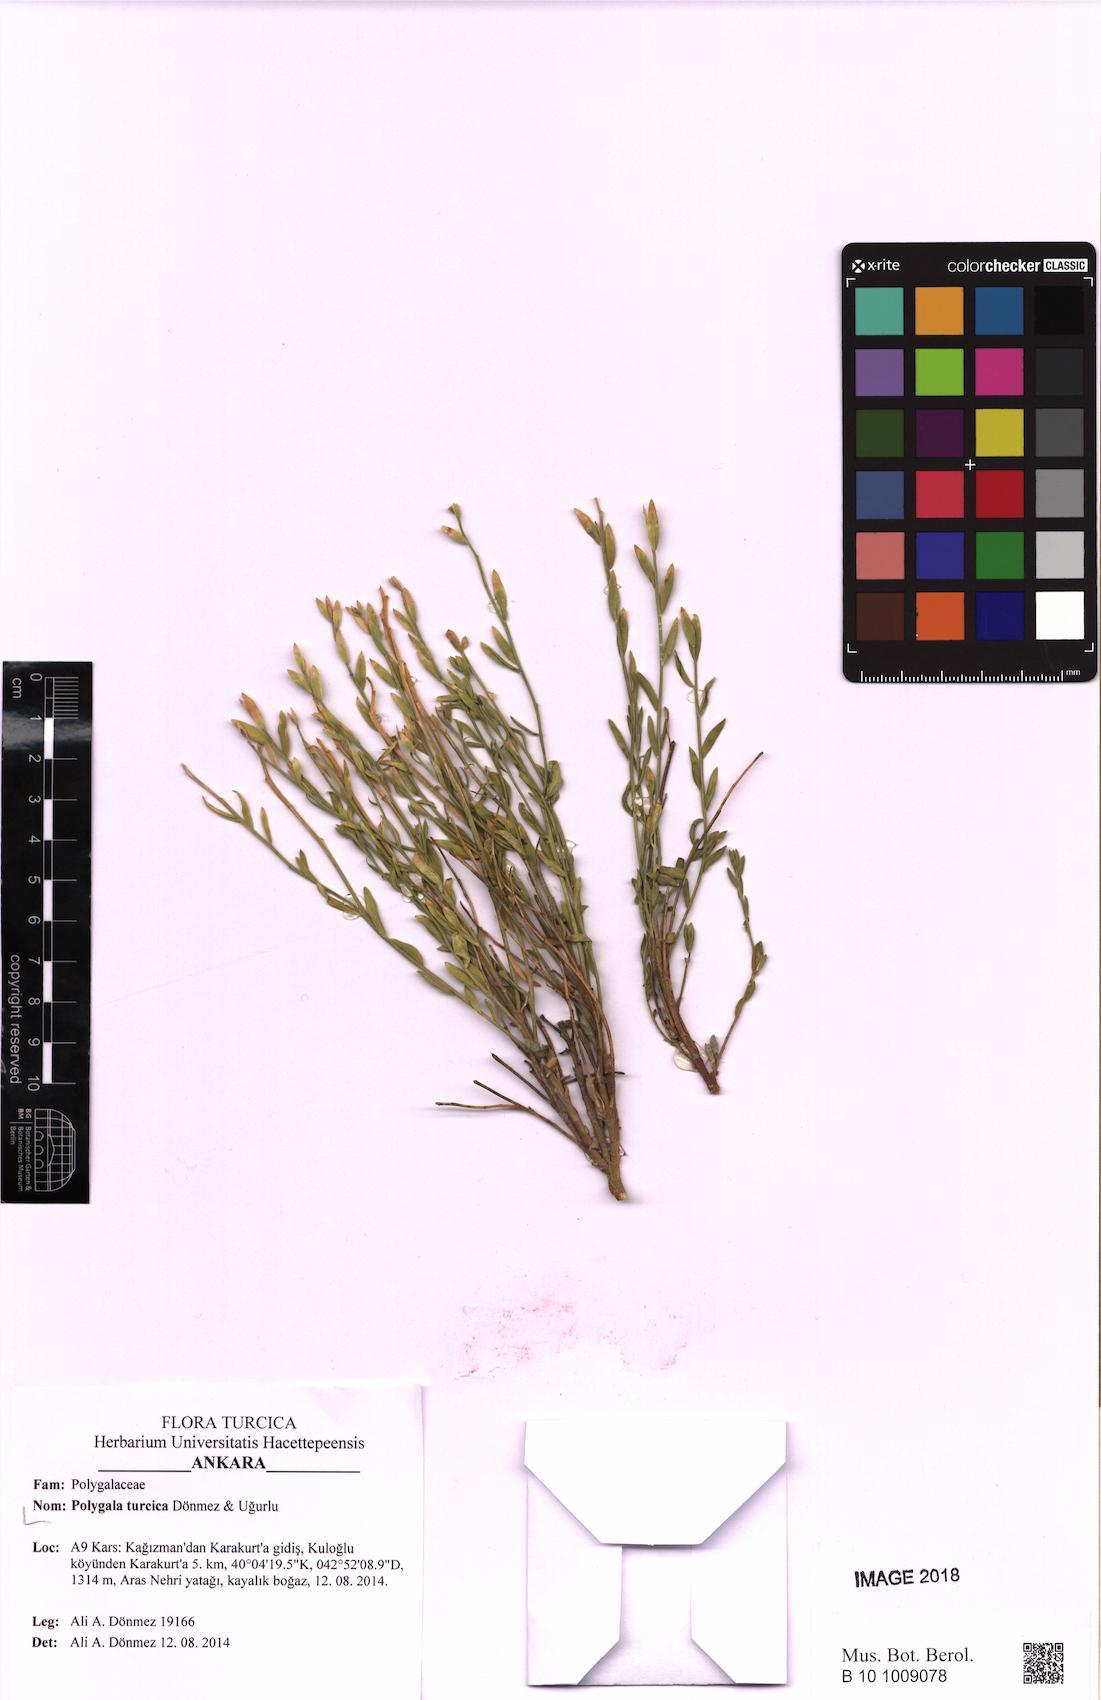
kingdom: Plantae
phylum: Tracheophyta
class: Magnoliopsida
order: Fabales
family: Polygalaceae
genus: Polygala
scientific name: Polygala turcica
